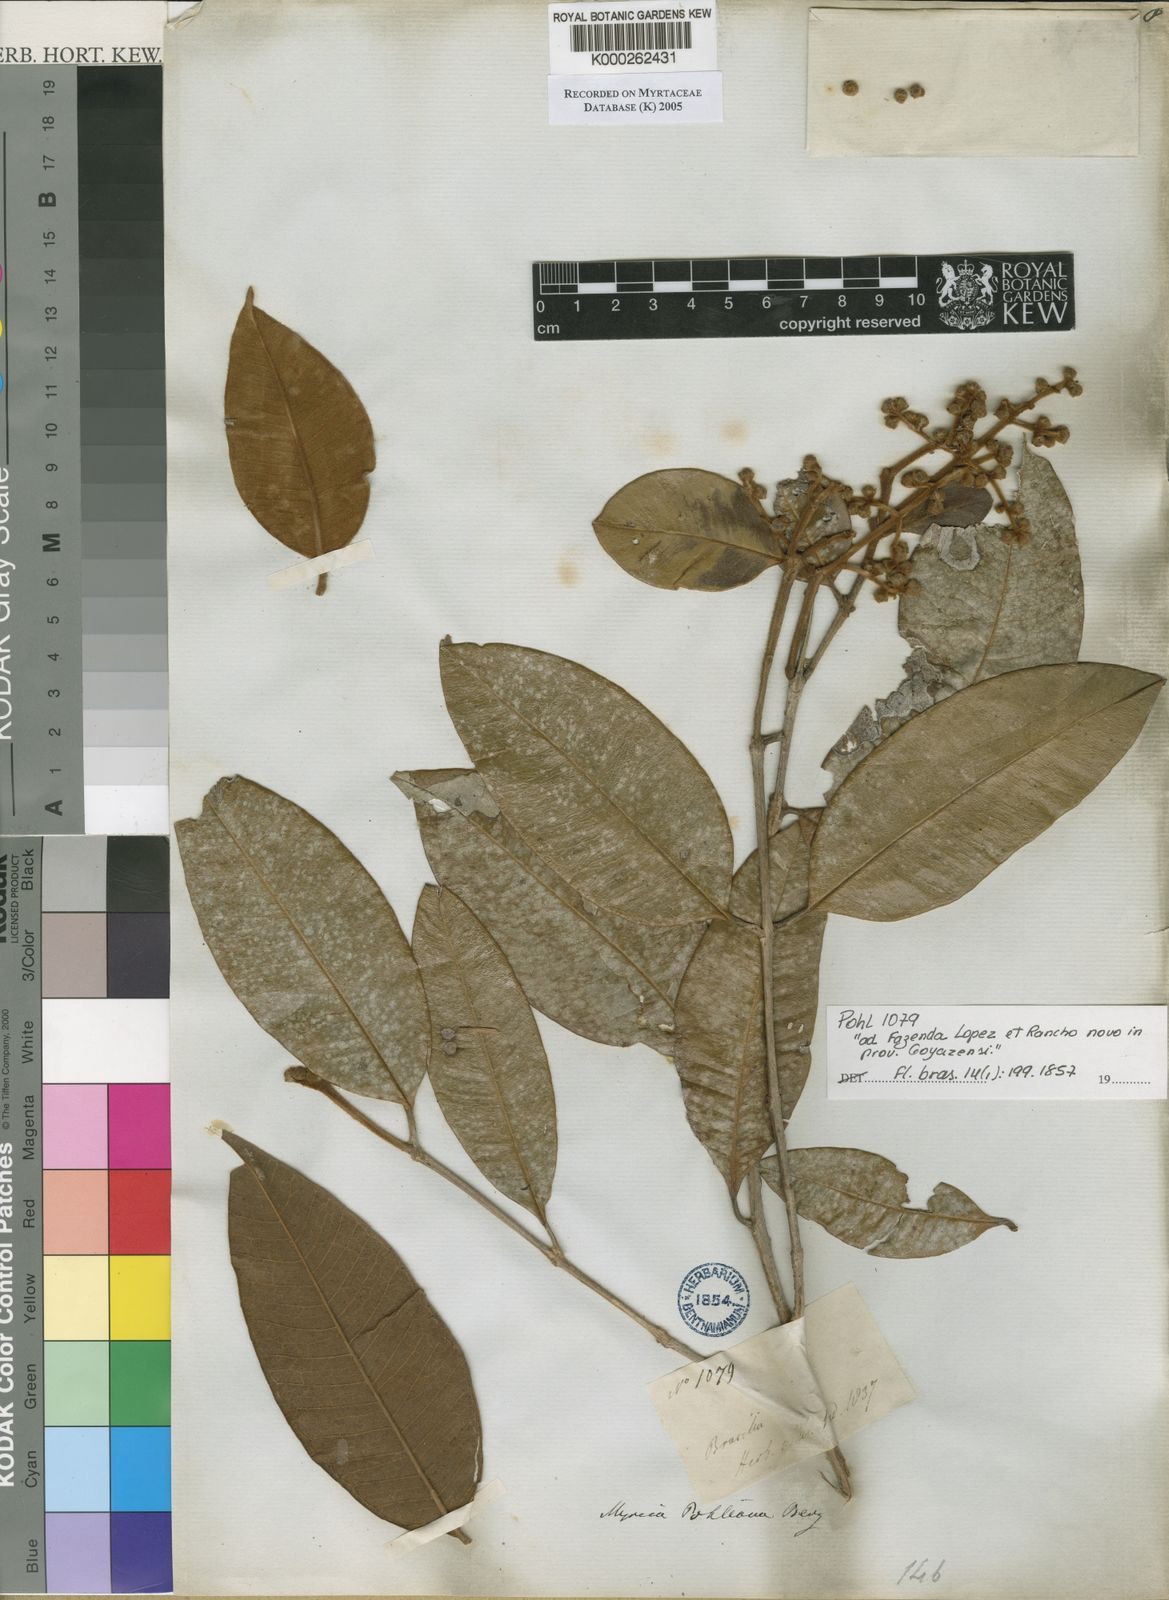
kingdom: Plantae
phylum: Tracheophyta
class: Magnoliopsida
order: Myrtales
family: Myrtaceae
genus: Myrcia
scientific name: Myrcia splendens
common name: Surinam cherry
